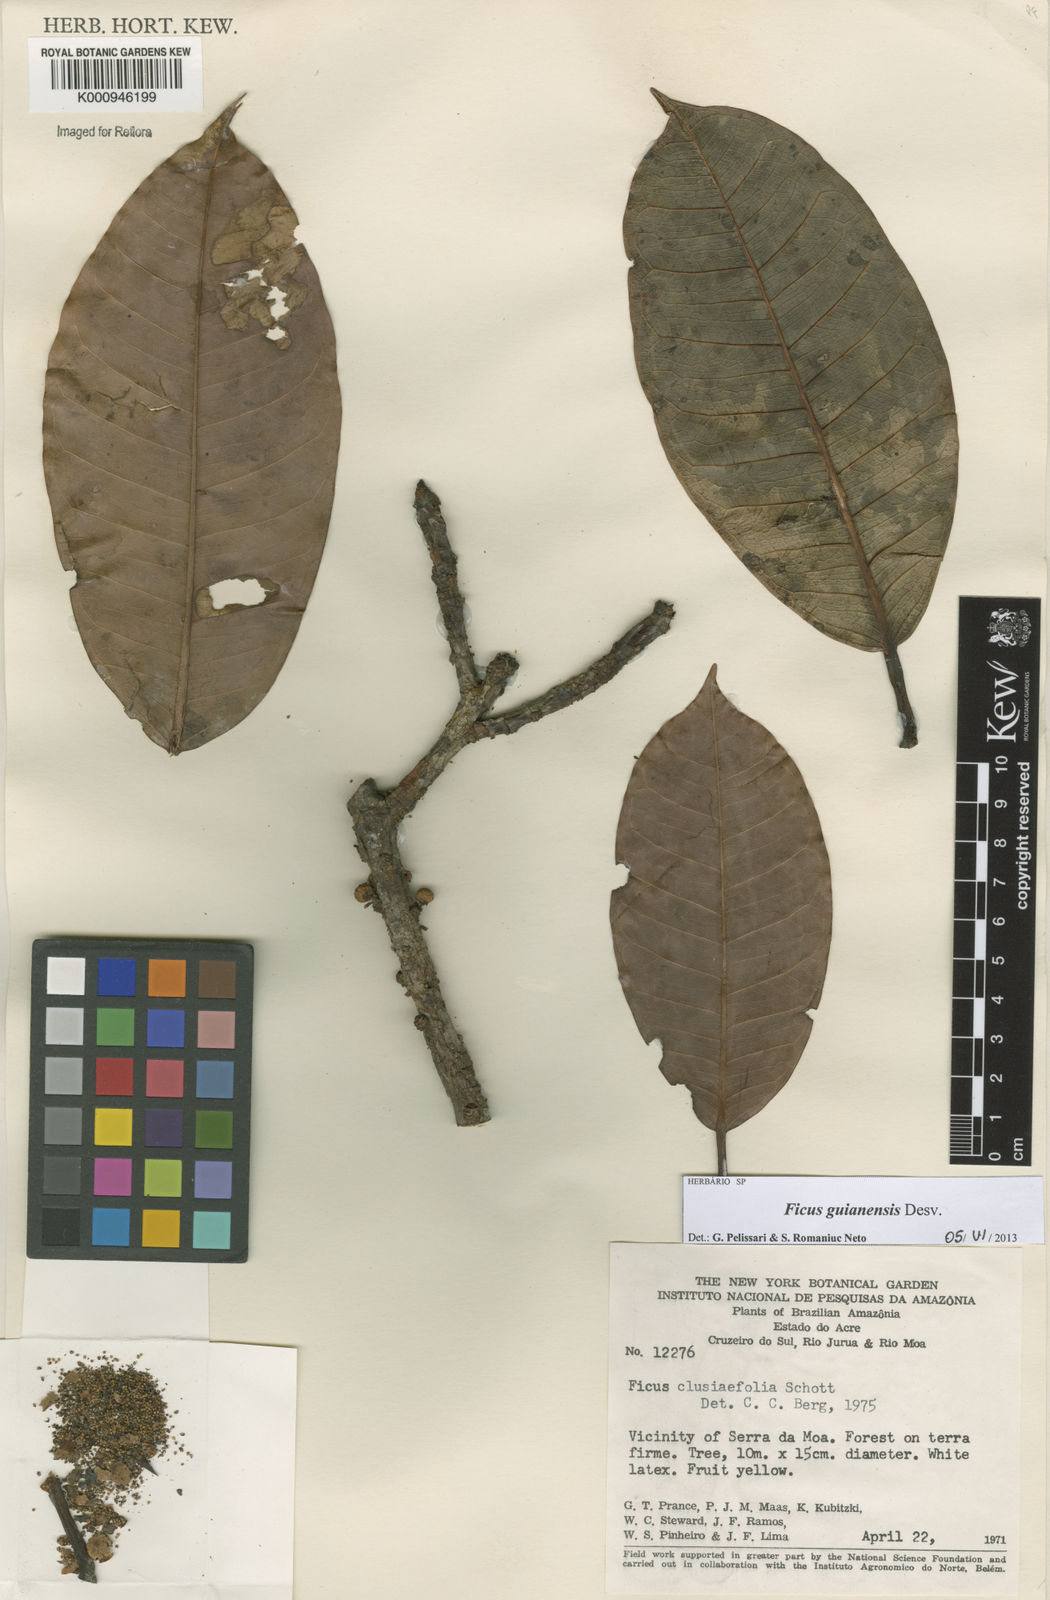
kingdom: Plantae
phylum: Tracheophyta
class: Magnoliopsida
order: Rosales
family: Moraceae
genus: Ficus
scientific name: Ficus americana
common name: Jamaican cherry fig
